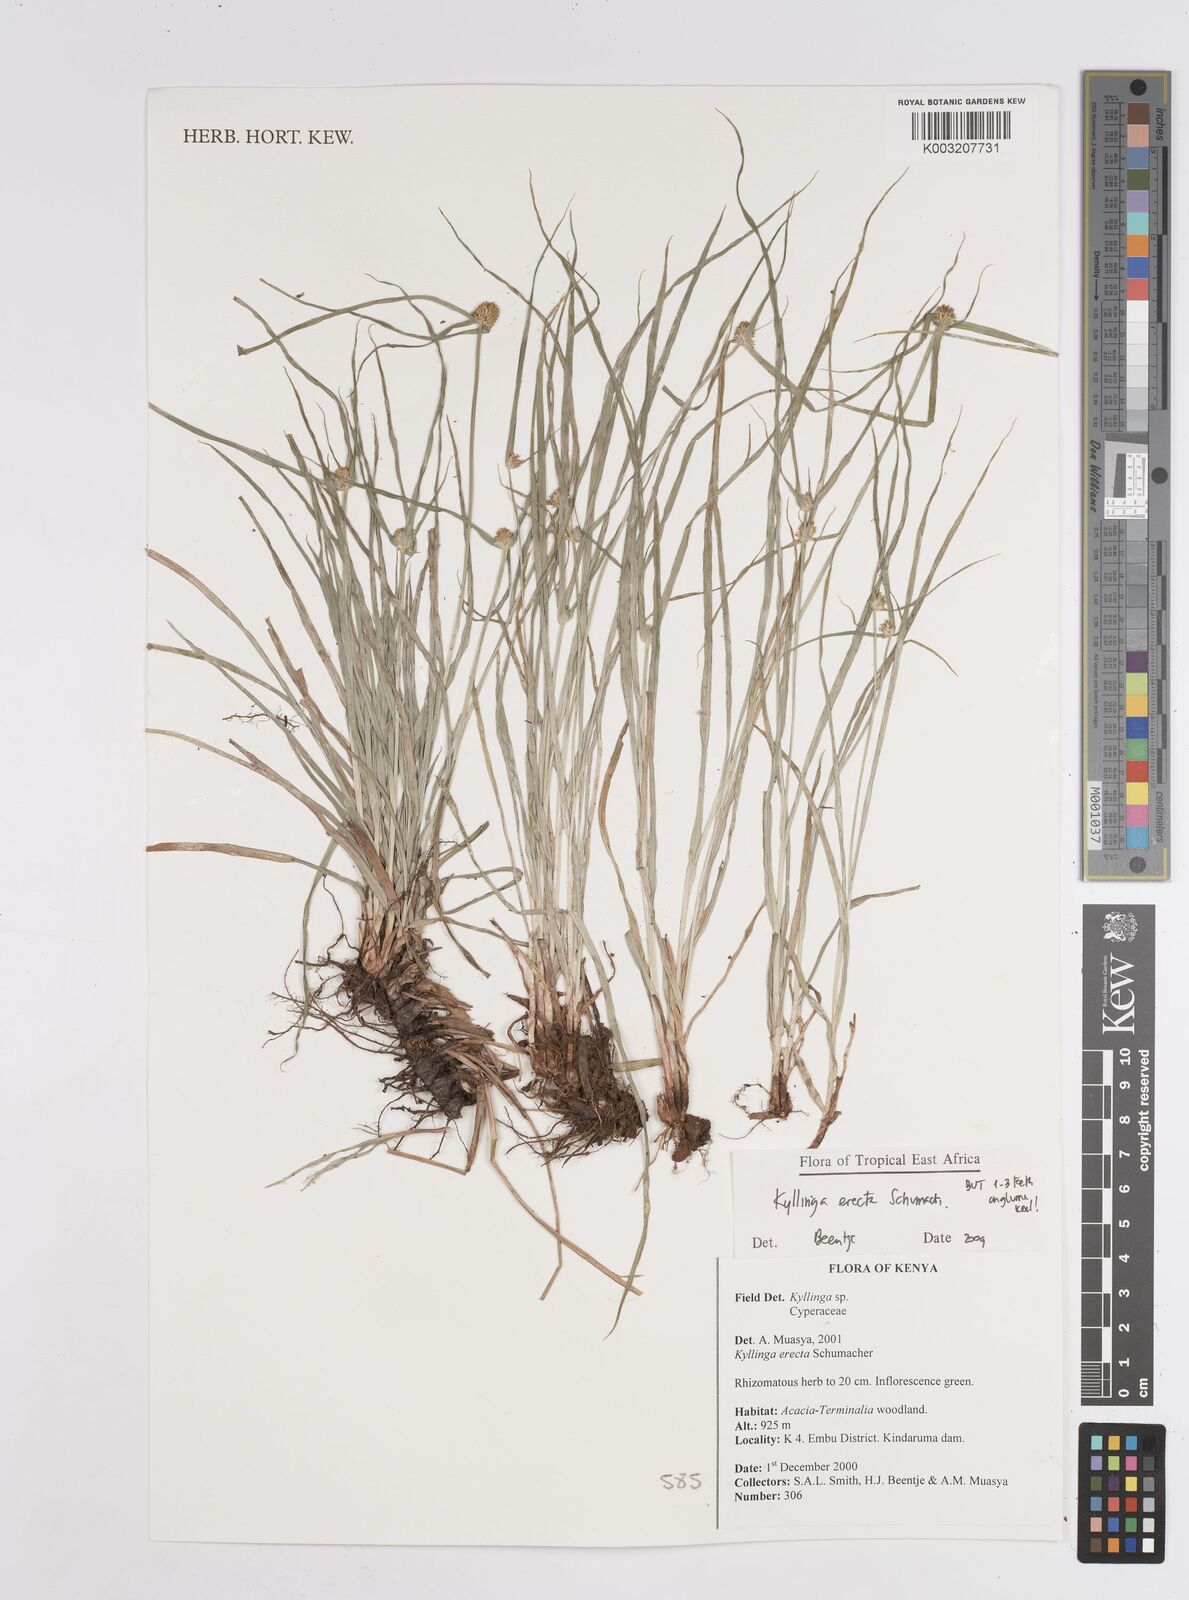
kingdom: Plantae
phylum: Tracheophyta
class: Liliopsida
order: Poales
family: Cyperaceae
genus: Cyperus
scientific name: Cyperus erectus
